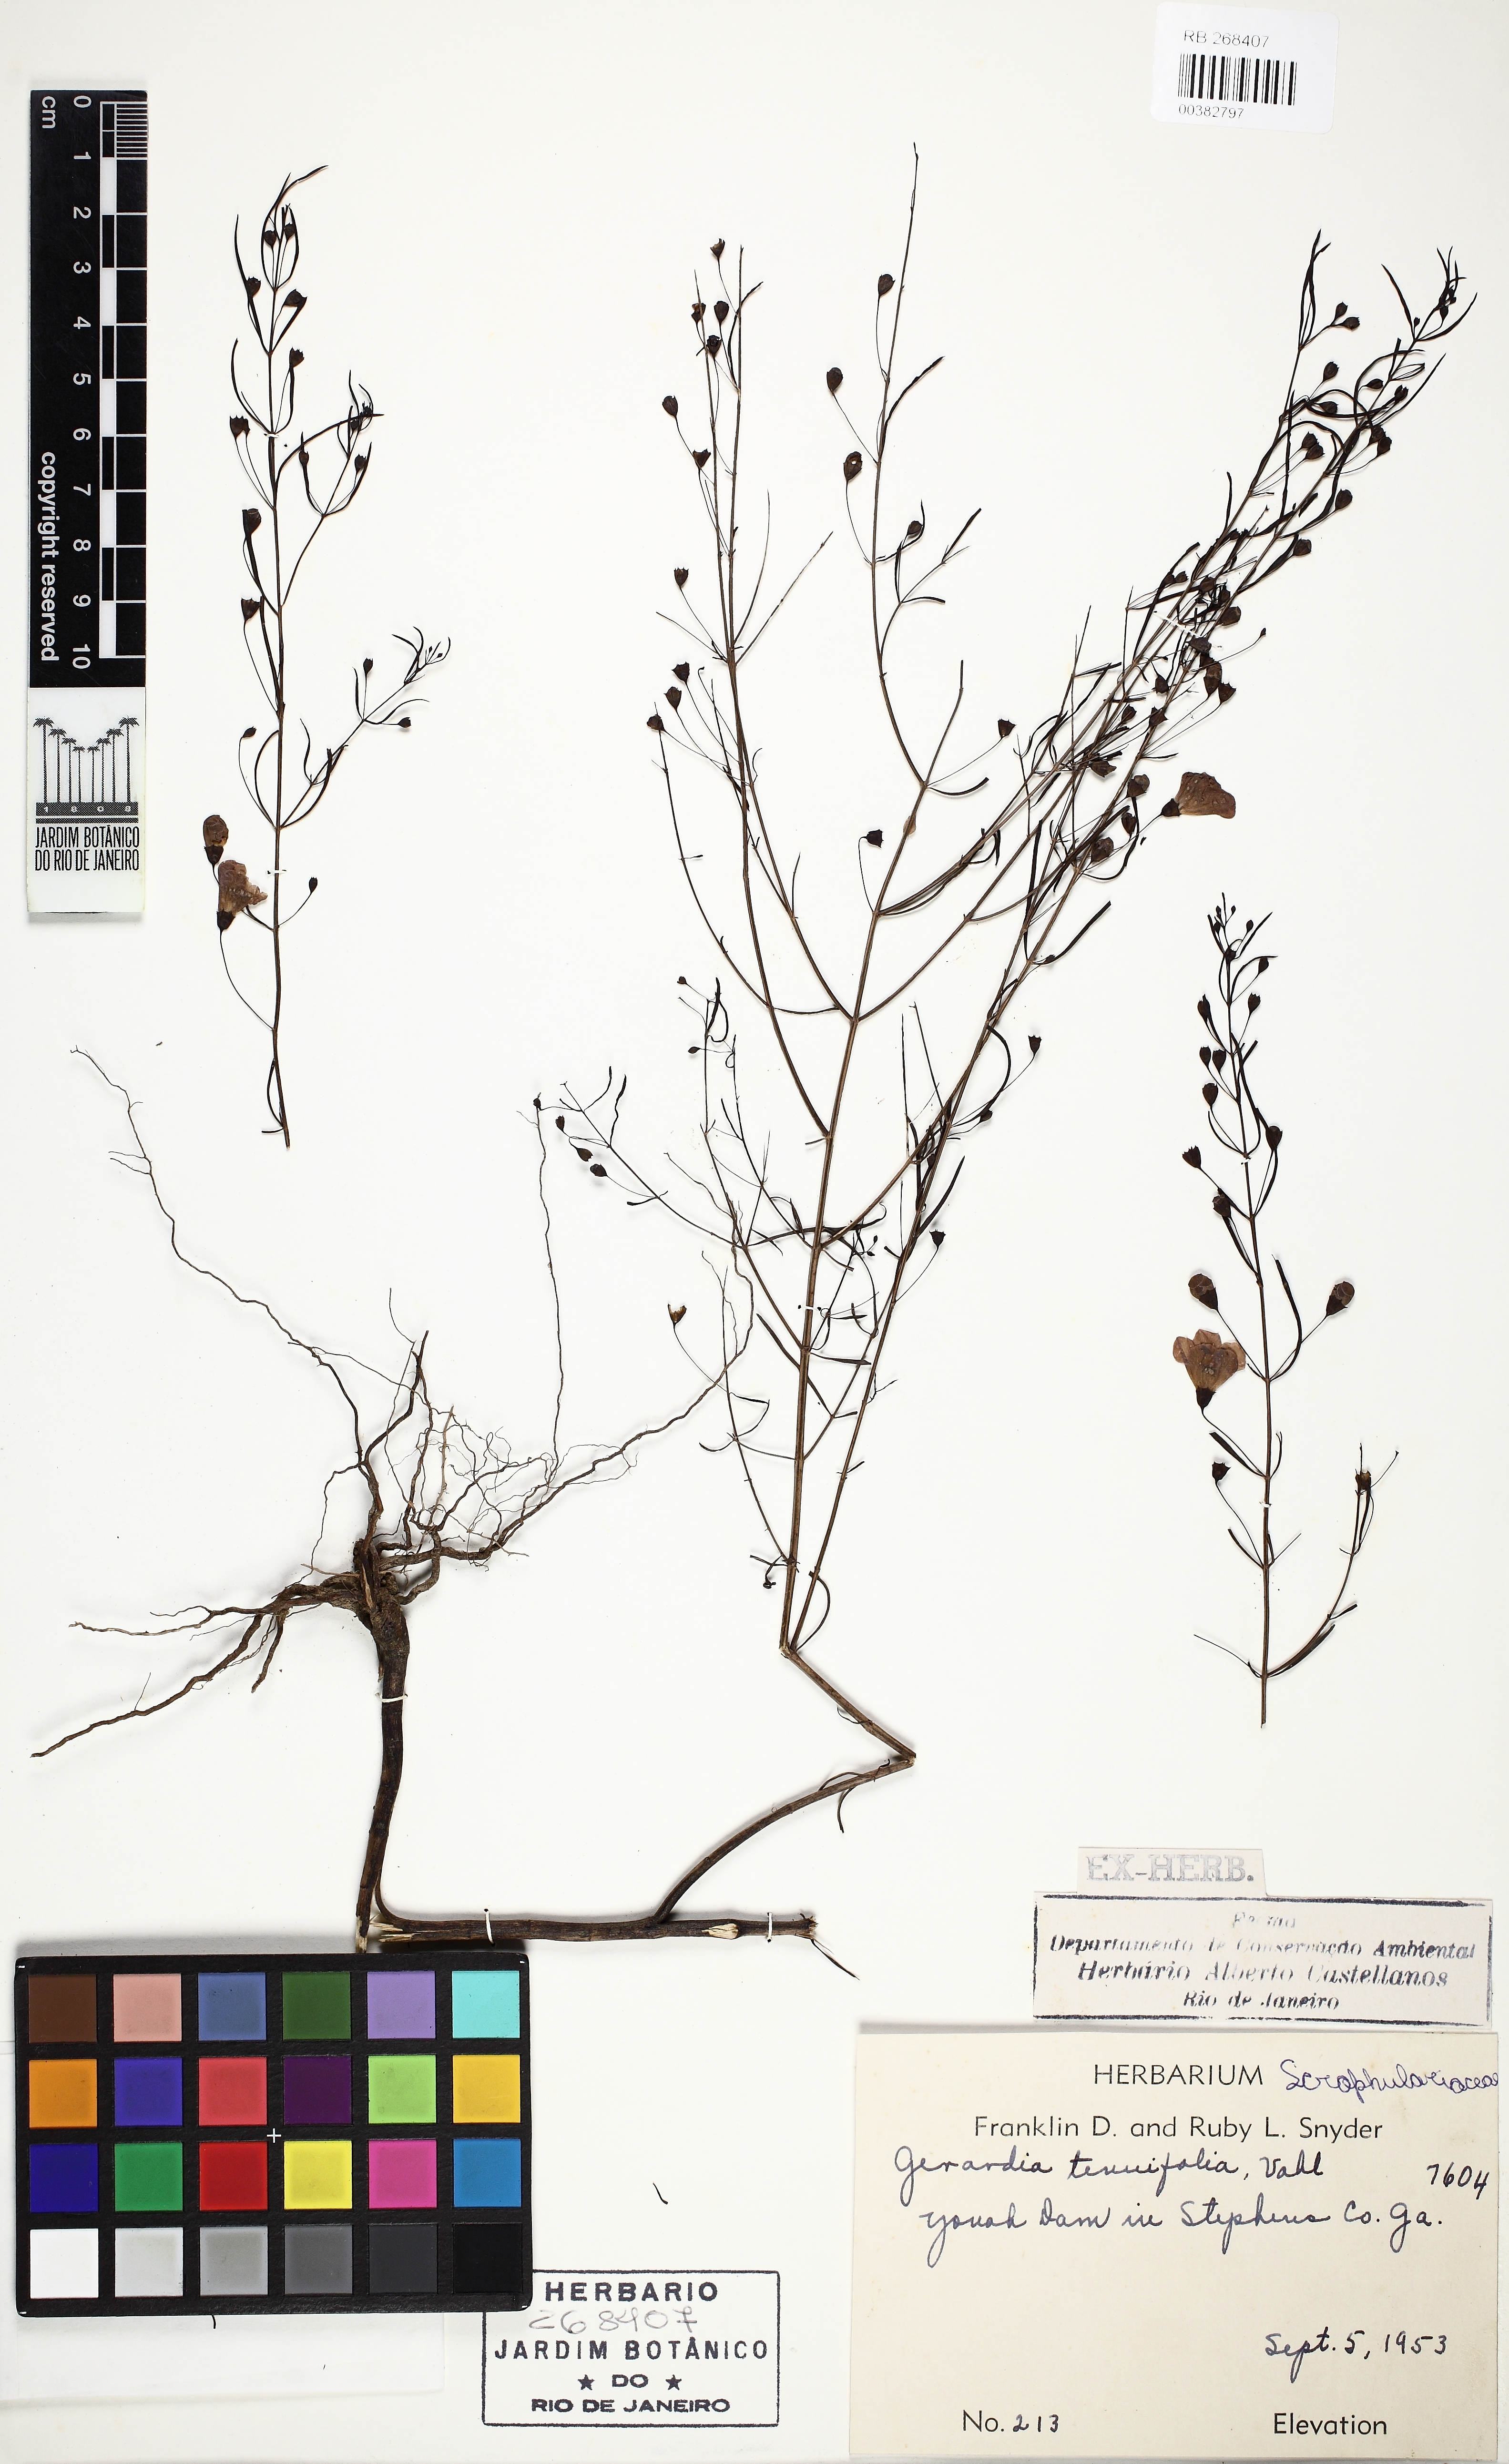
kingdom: Plantae
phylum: Tracheophyta
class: Magnoliopsida
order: Lamiales
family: Orobanchaceae
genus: Agalinis
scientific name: Agalinis tenuifolia
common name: Slender agalinis
